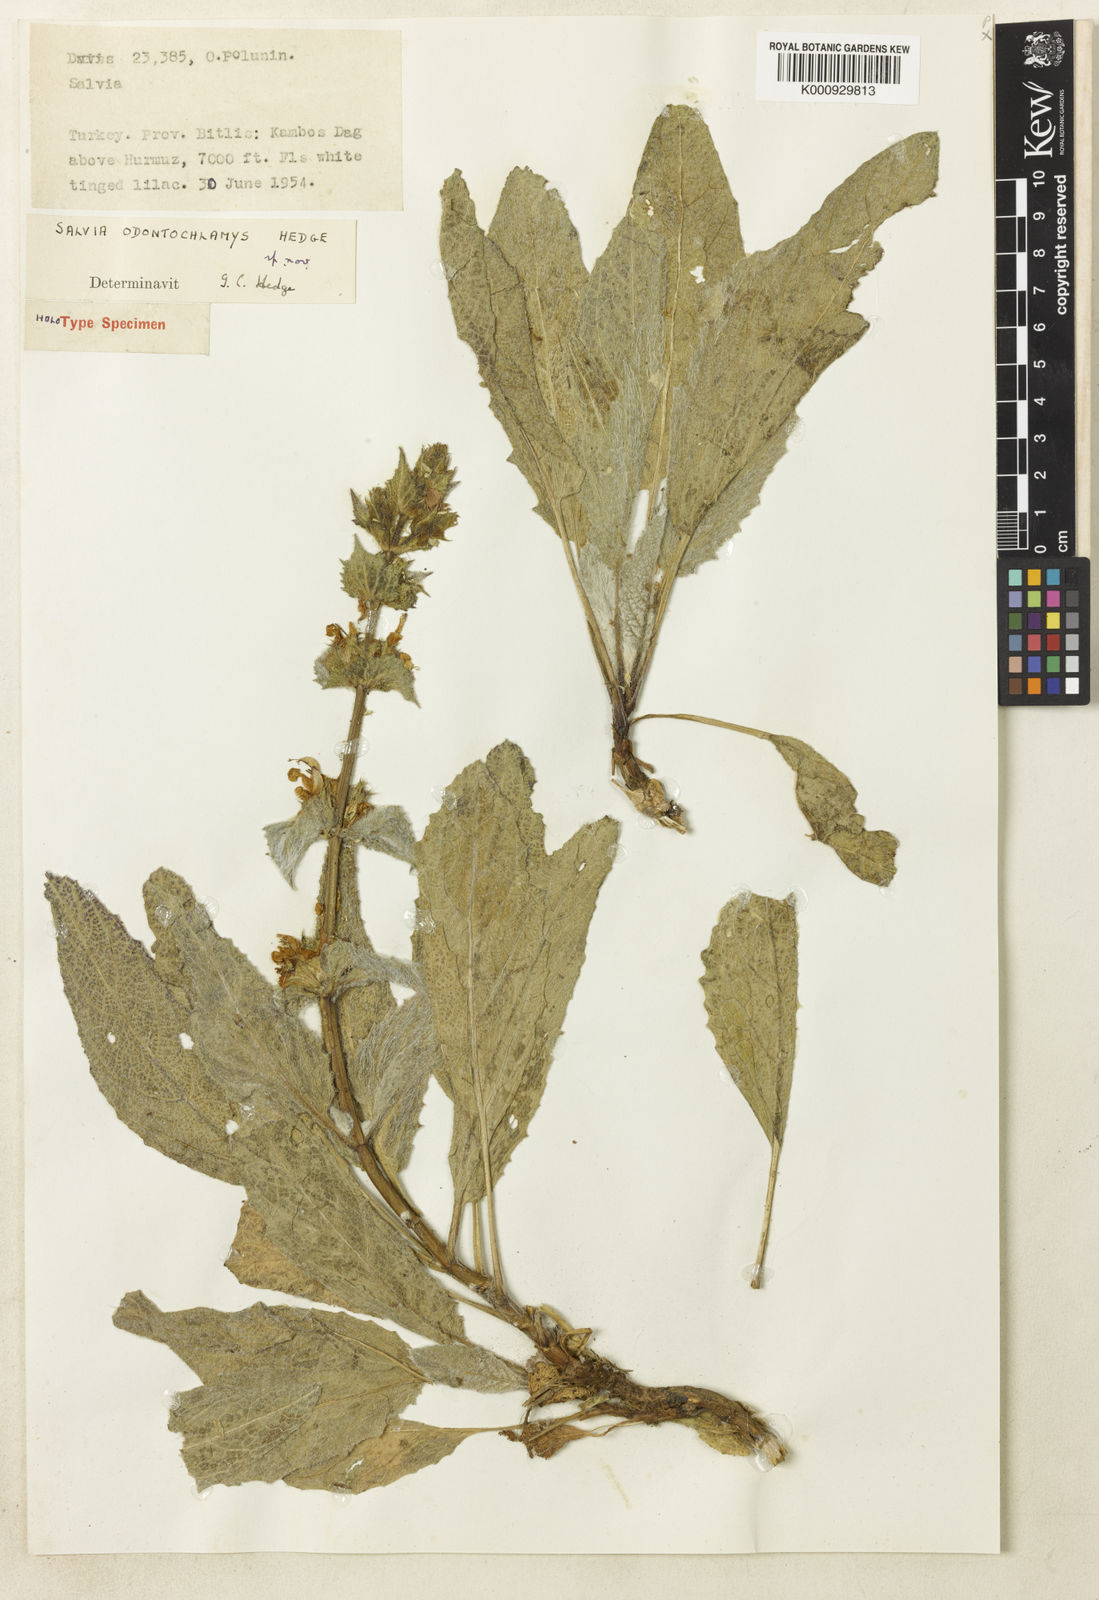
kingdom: Plantae
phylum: Tracheophyta
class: Magnoliopsida
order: Lamiales
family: Lamiaceae
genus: Salvia
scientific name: Salvia odontochlamys
